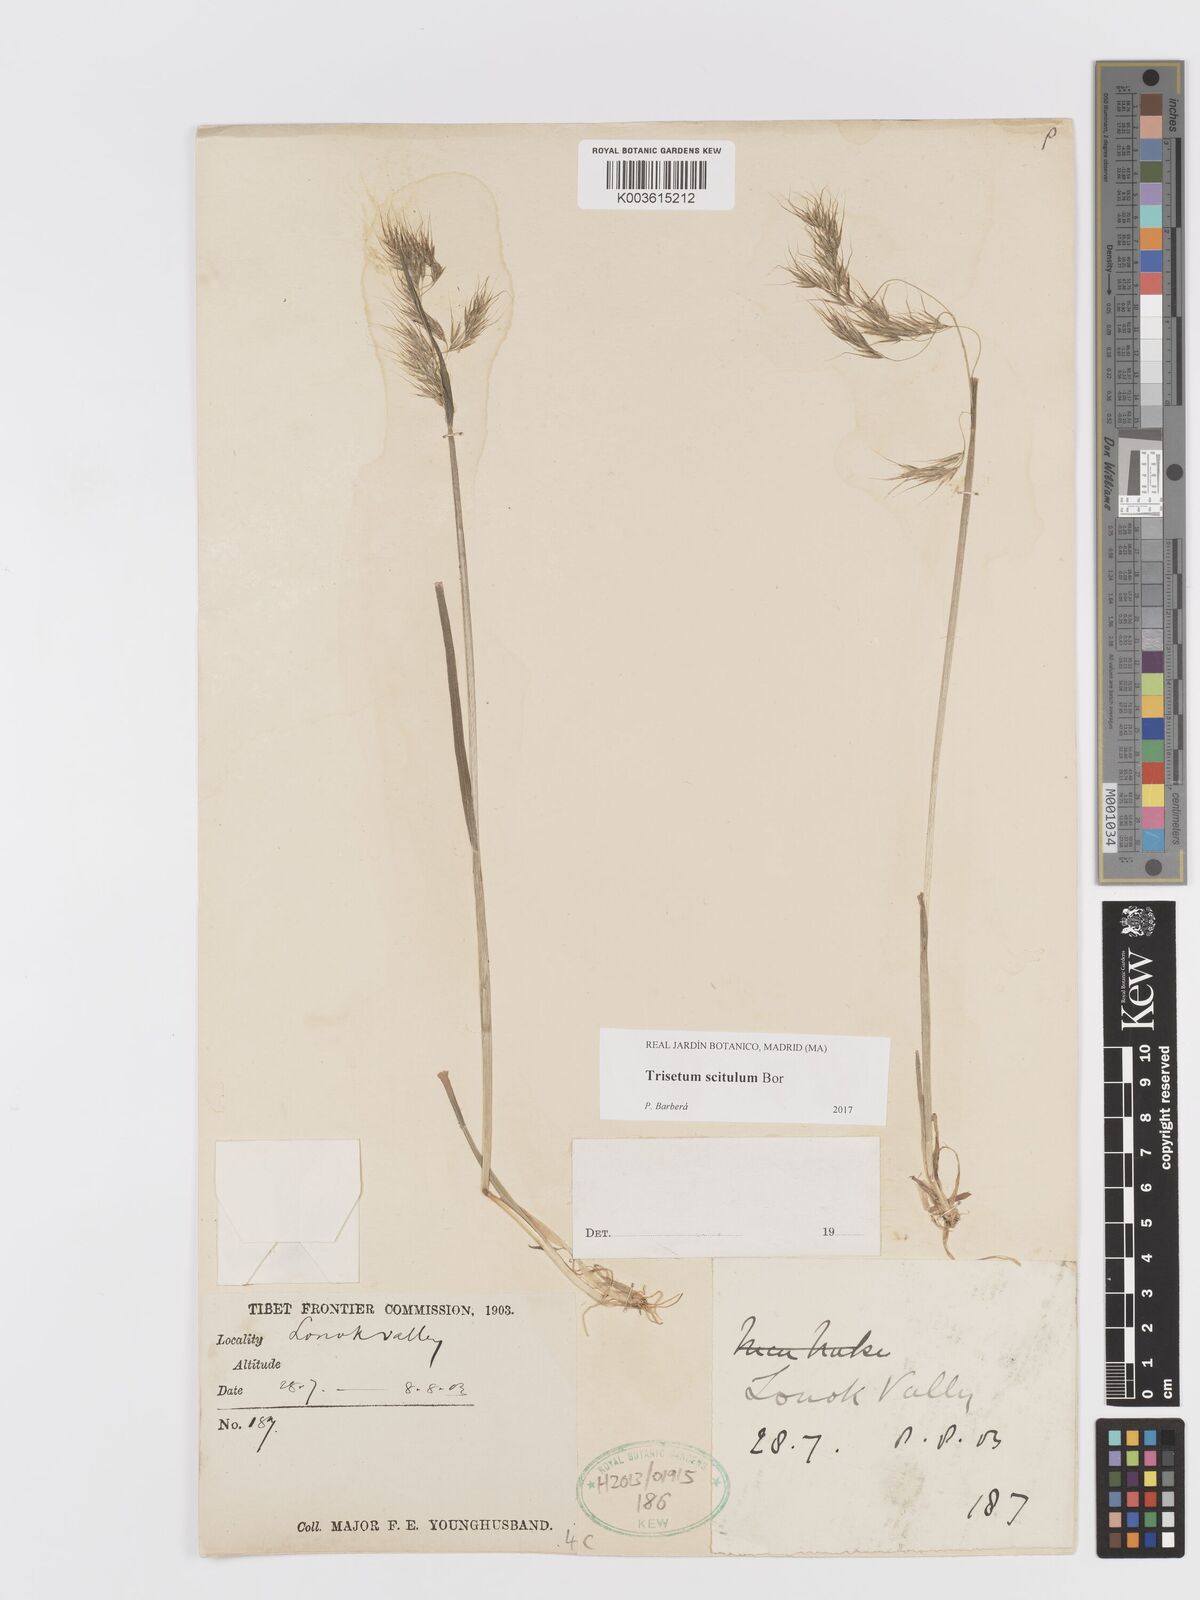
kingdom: Plantae
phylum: Tracheophyta
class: Liliopsida
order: Poales
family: Poaceae
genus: Sibirotrisetum
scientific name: Sibirotrisetum scitulum
